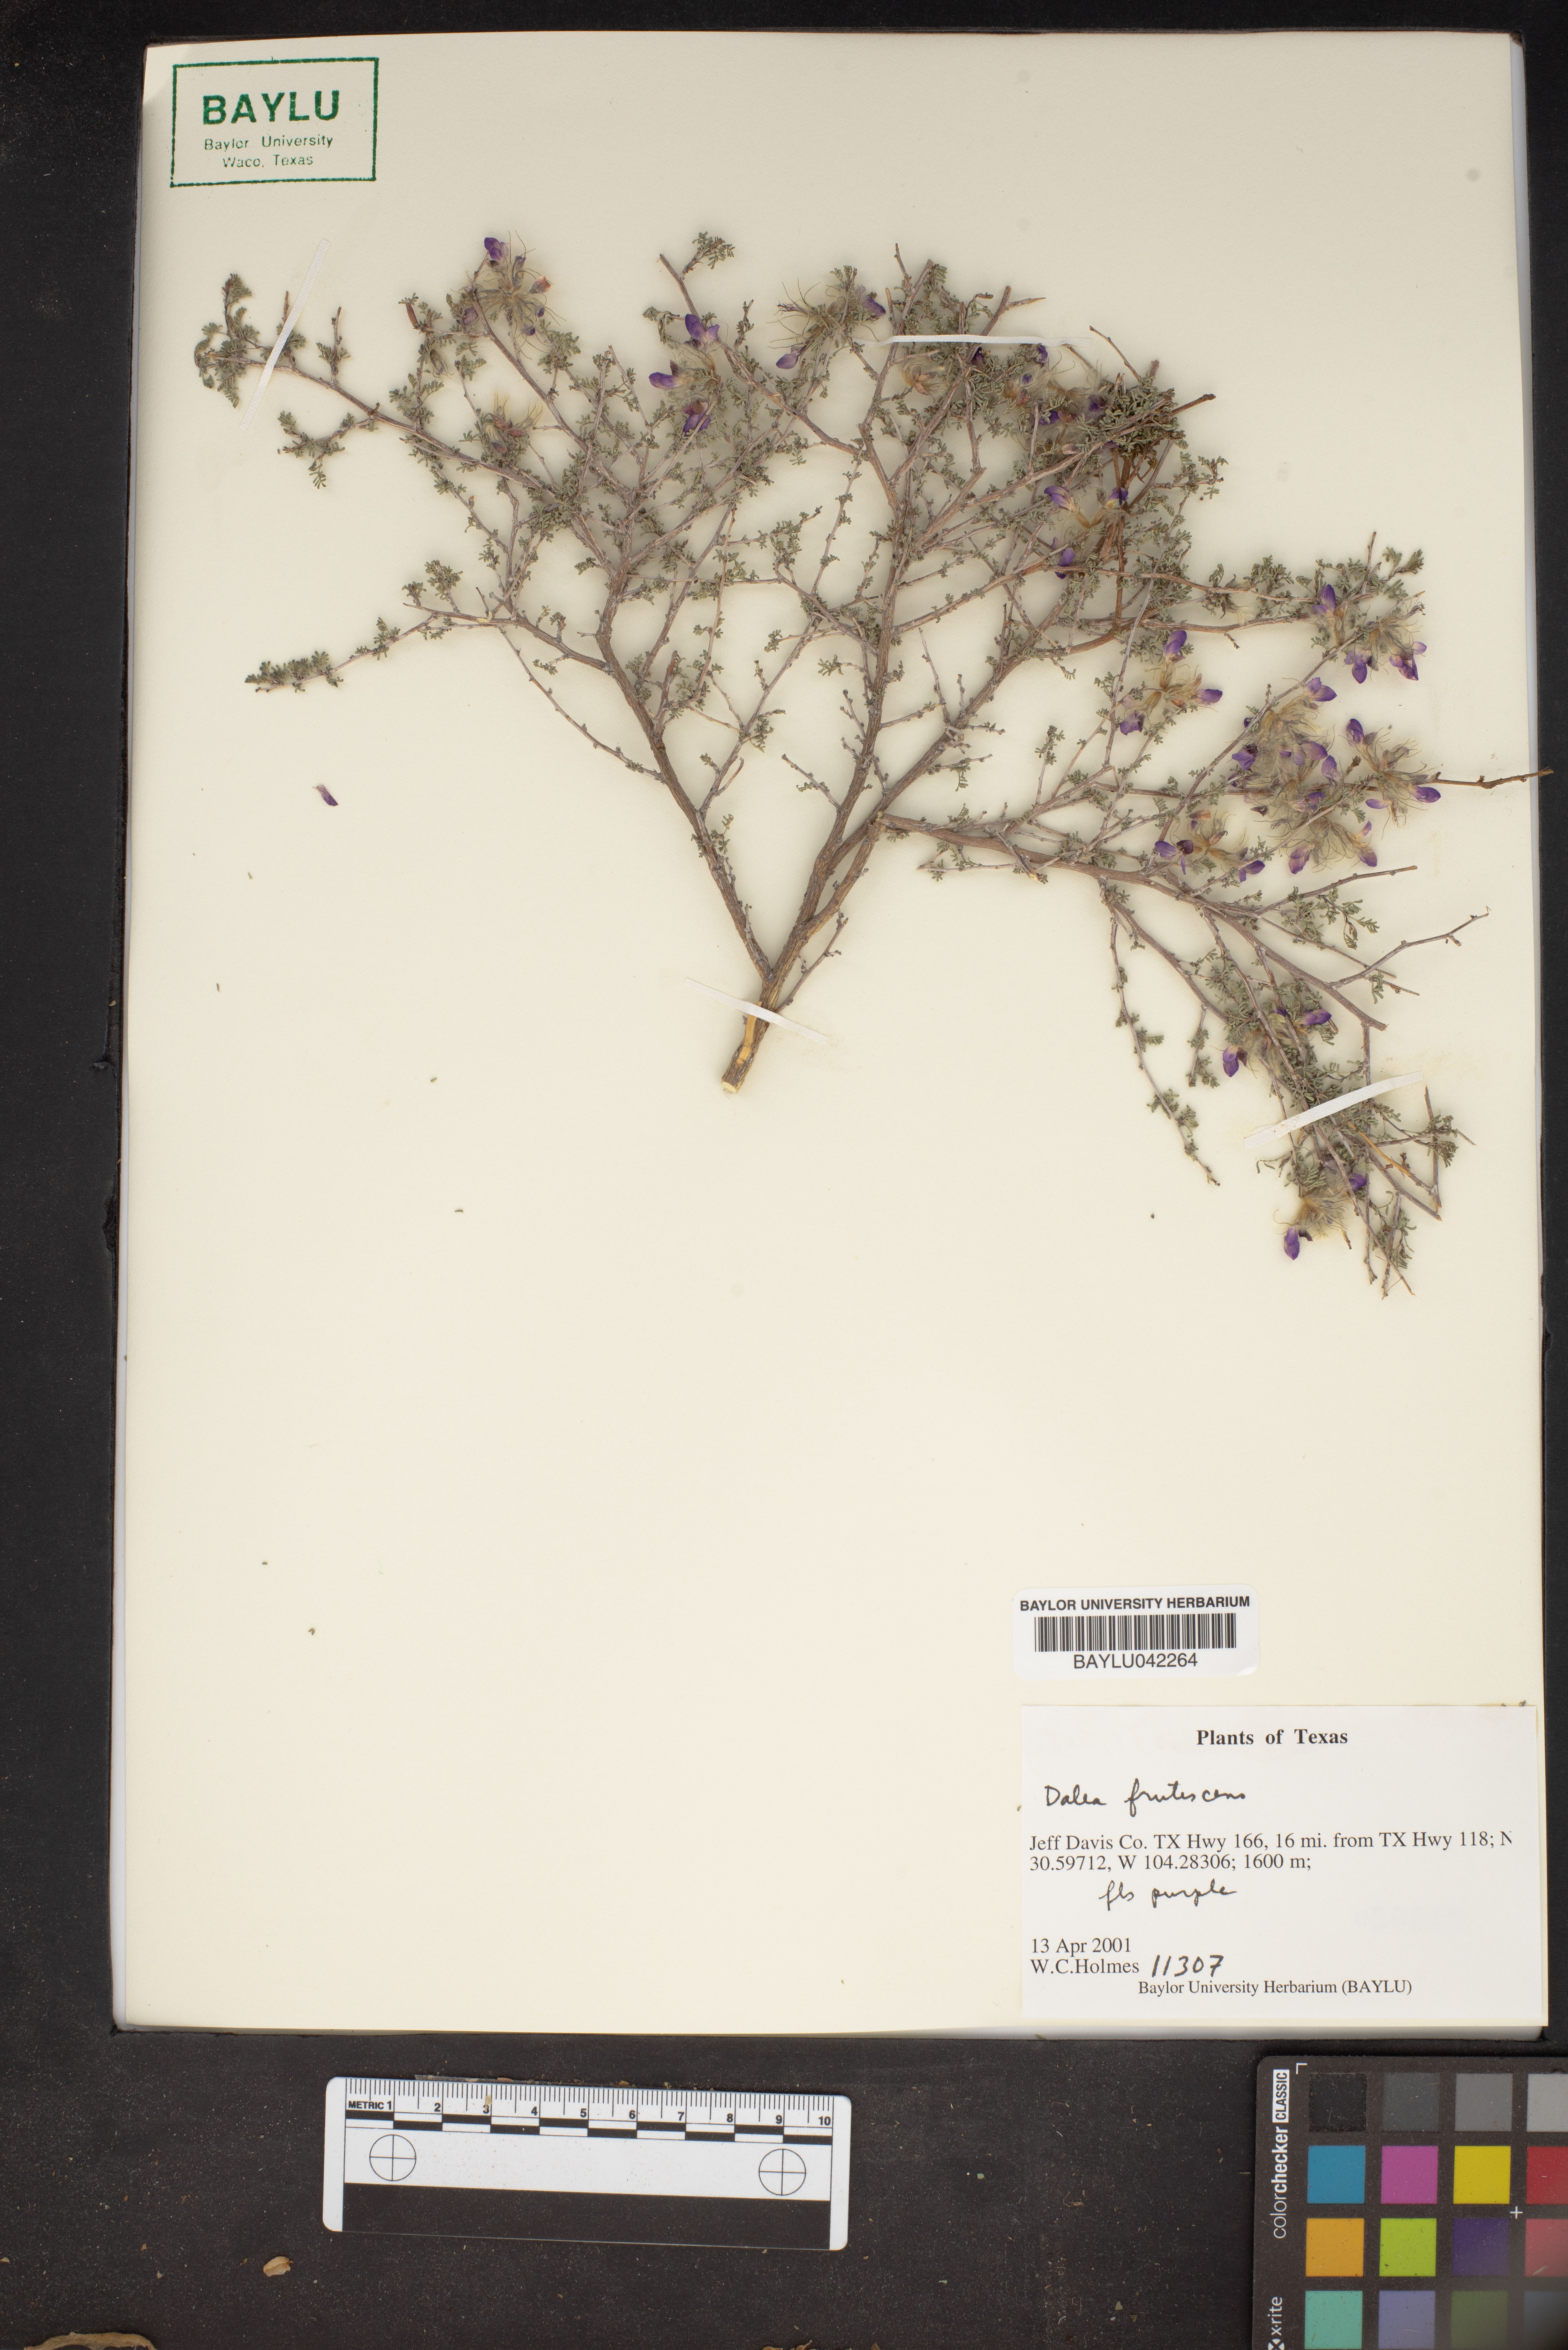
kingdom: Plantae
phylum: Tracheophyta
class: Magnoliopsida
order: Fabales
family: Fabaceae
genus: Dalea
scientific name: Dalea frutescens
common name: Black dalea
